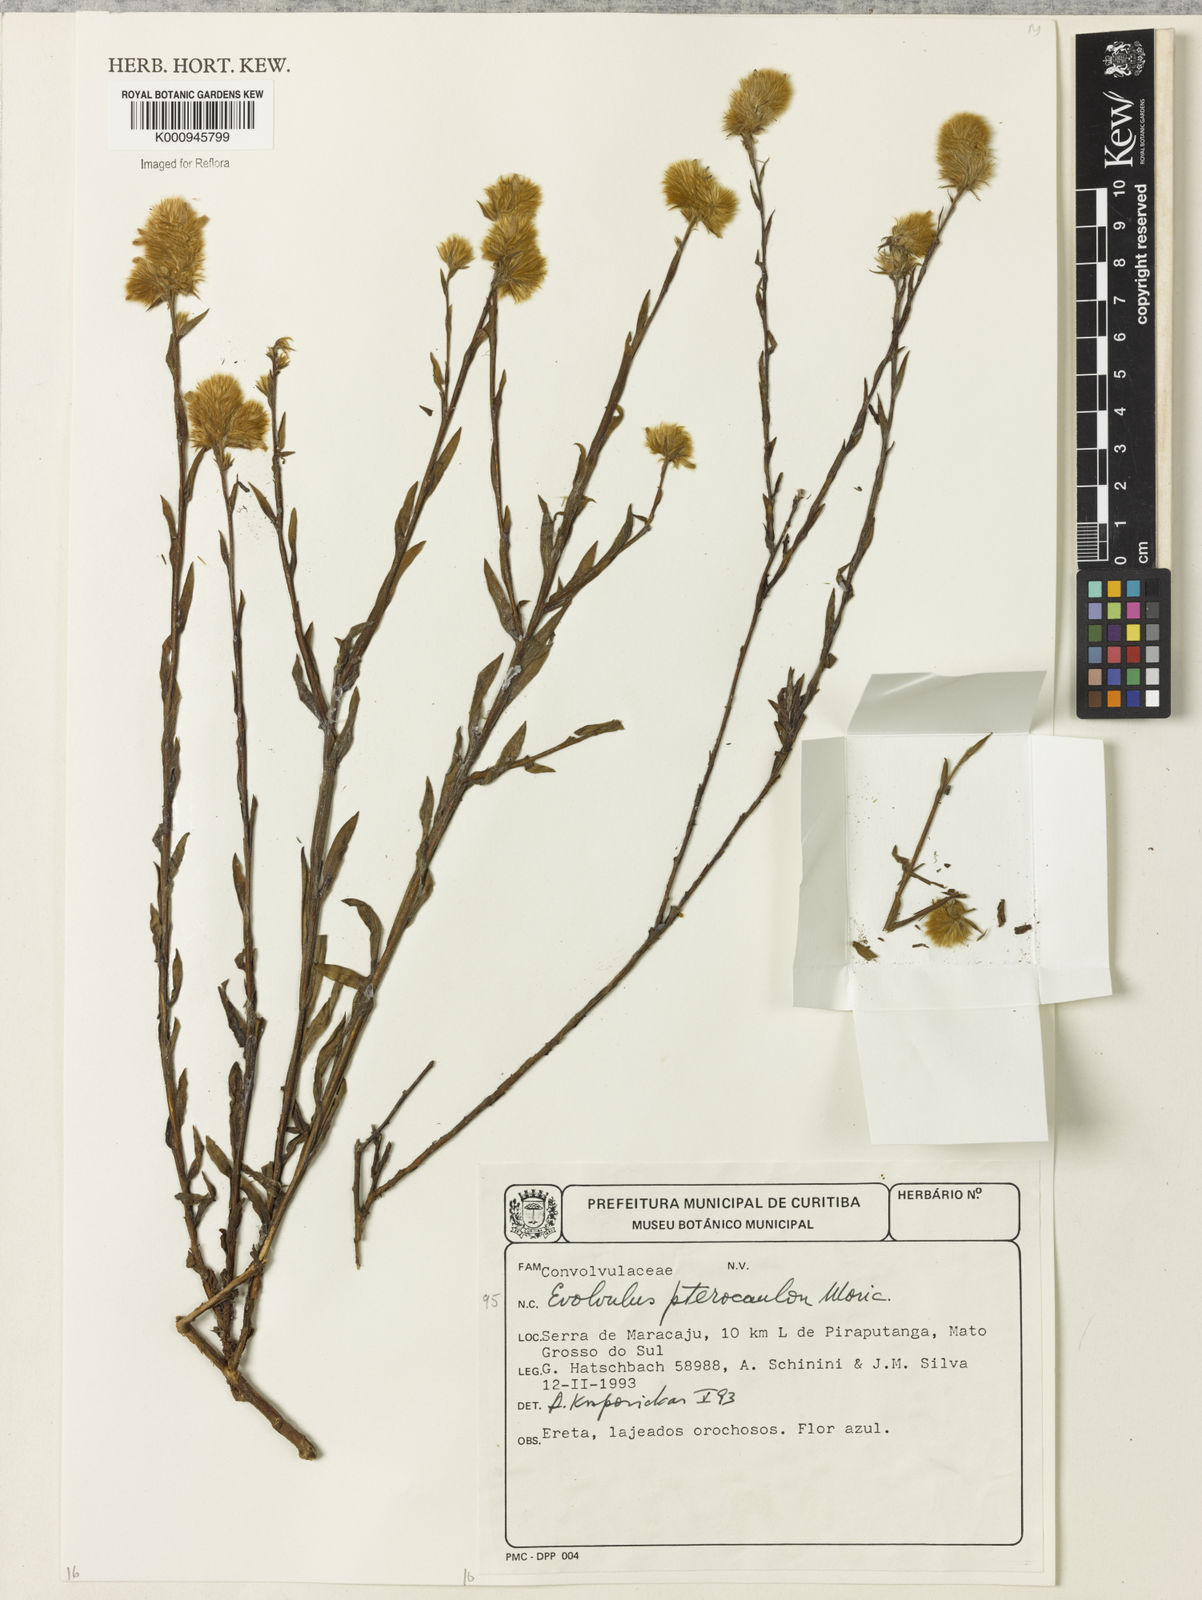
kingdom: Plantae
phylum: Tracheophyta
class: Magnoliopsida
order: Solanales
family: Convolvulaceae
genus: Evolvulus
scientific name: Evolvulus pterocaulon
